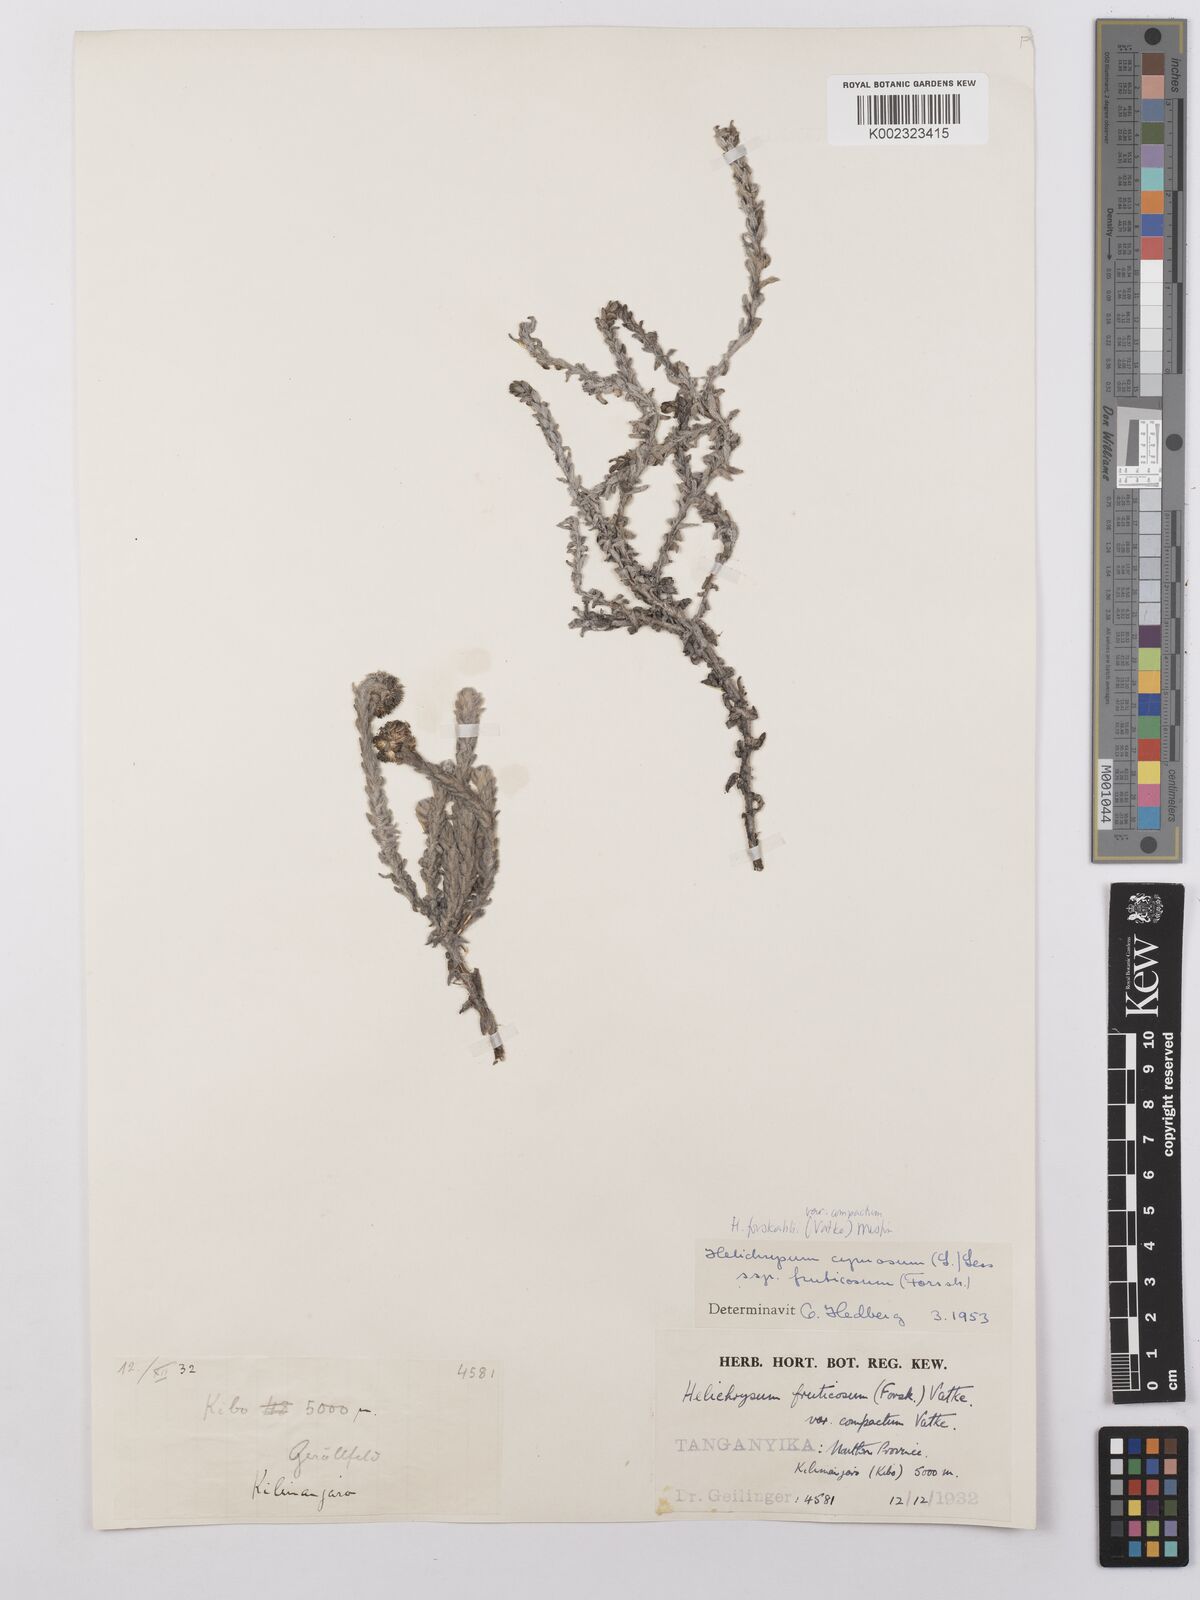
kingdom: Plantae
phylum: Tracheophyta
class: Magnoliopsida
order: Asterales
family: Asteraceae
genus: Helichrysum
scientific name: Helichrysum forskahlii
